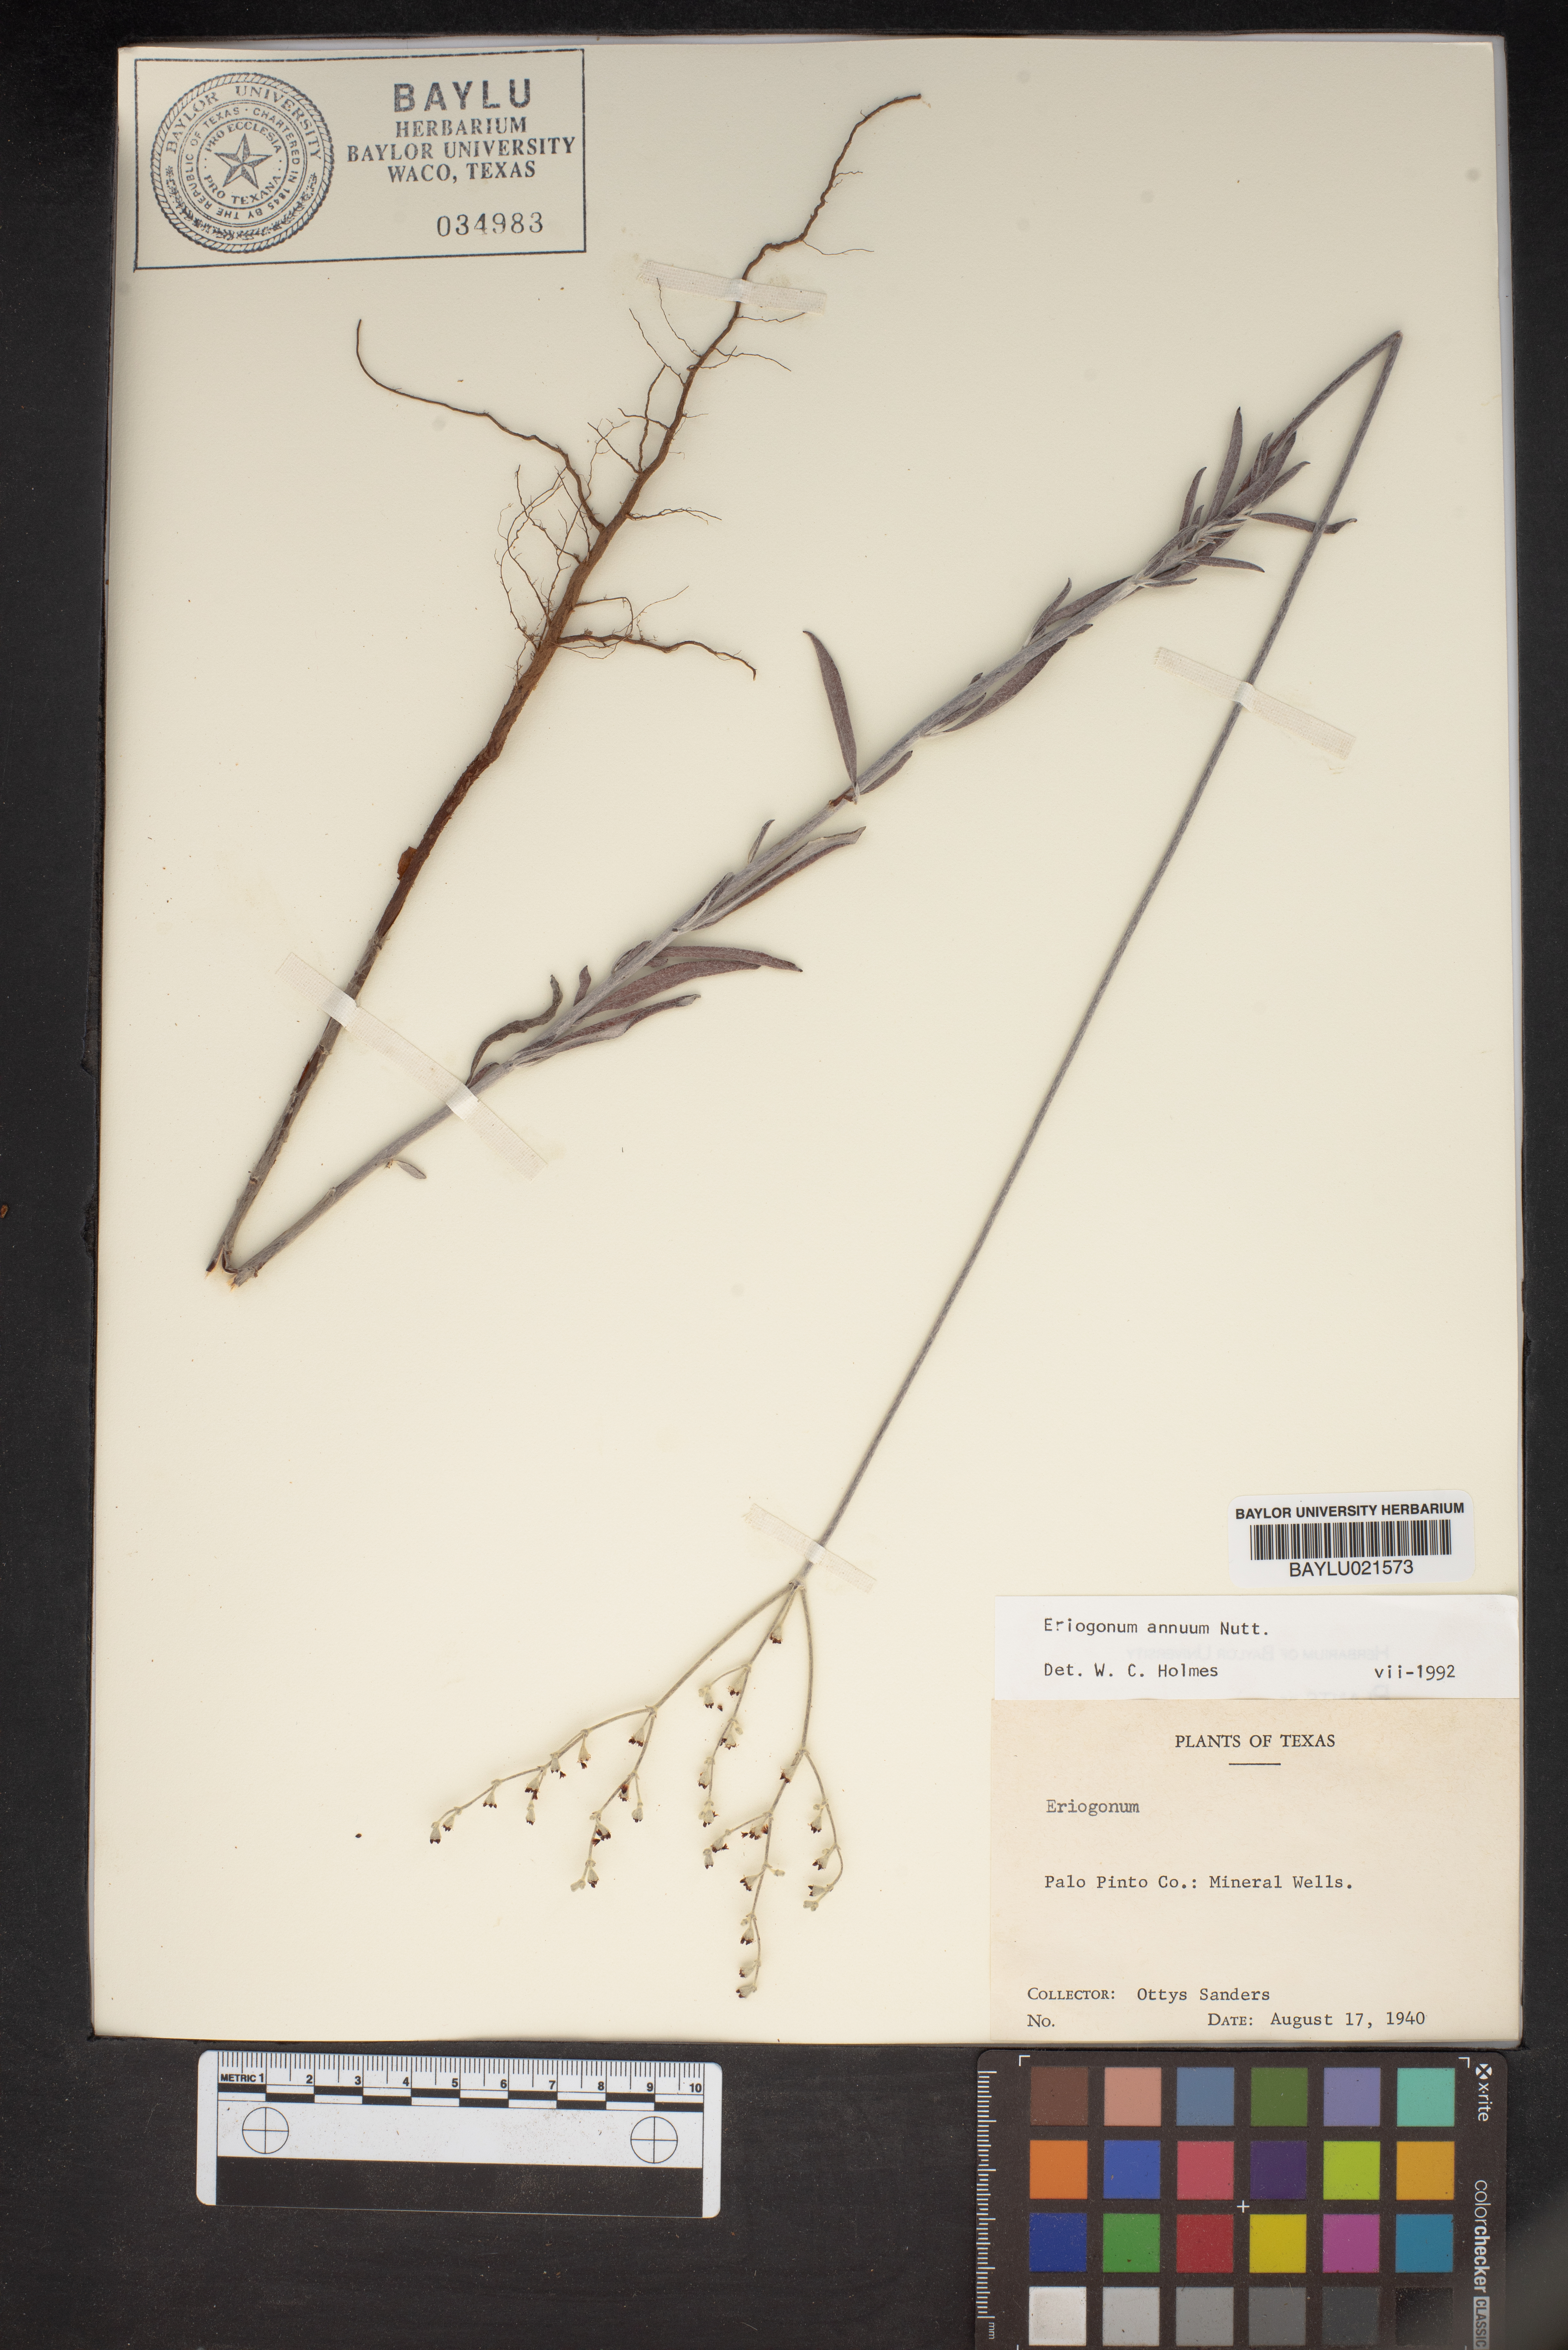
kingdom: Plantae
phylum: Tracheophyta
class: Magnoliopsida
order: Caryophyllales
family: Polygonaceae
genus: Eriogonum
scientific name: Eriogonum annuum
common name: Annual wild buckwheat
